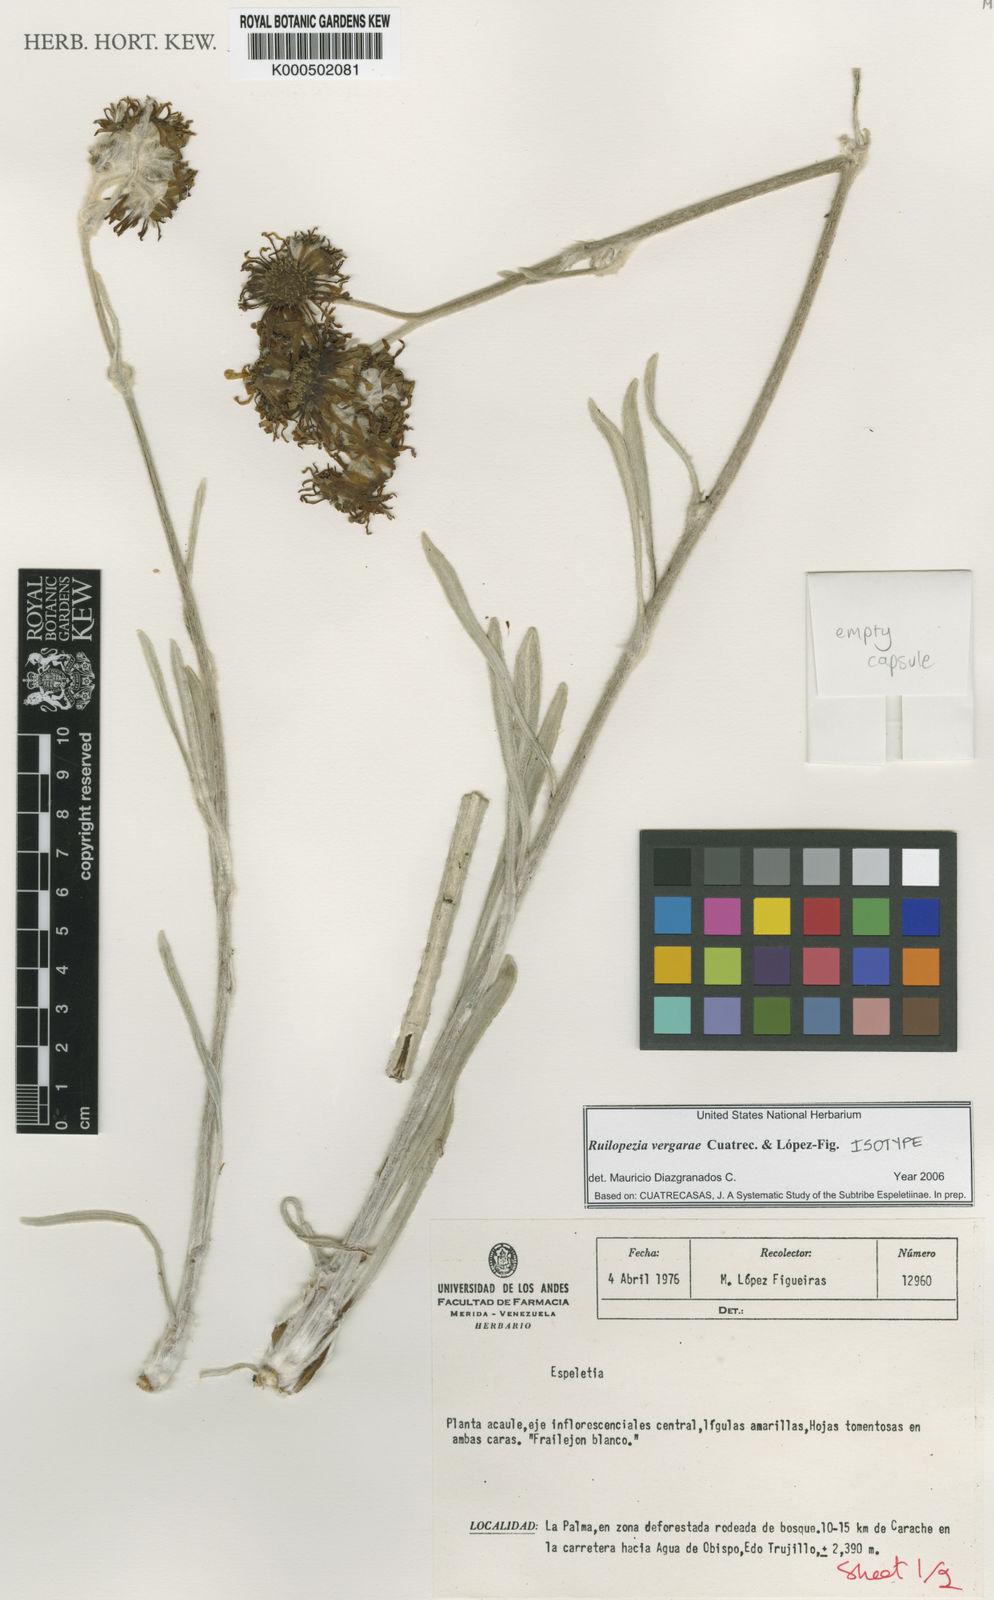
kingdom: Plantae
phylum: Tracheophyta
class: Magnoliopsida
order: Asterales
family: Asteraceae
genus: Espeletia
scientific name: Espeletia
